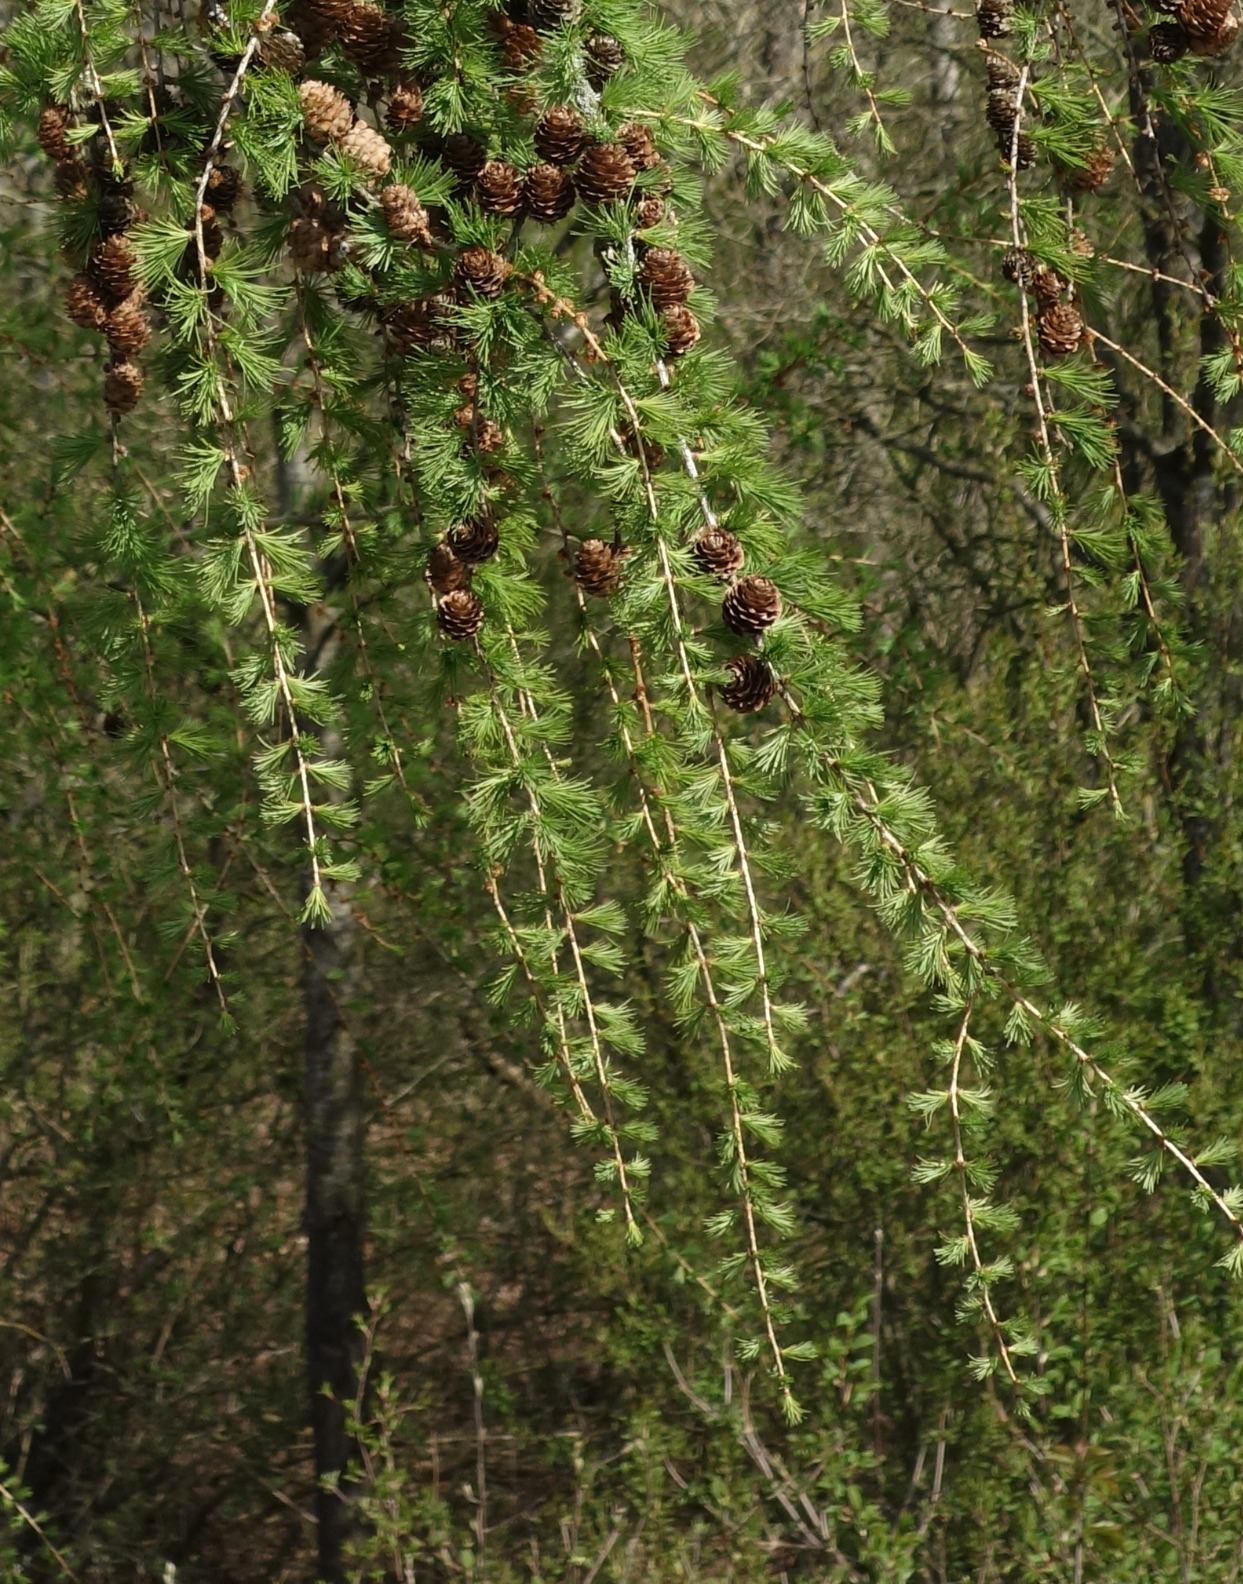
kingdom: Plantae
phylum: Tracheophyta
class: Pinopsida
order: Pinales
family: Pinaceae
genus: Larix
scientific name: Larix marschlinsii
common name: Hybrid-lærk
